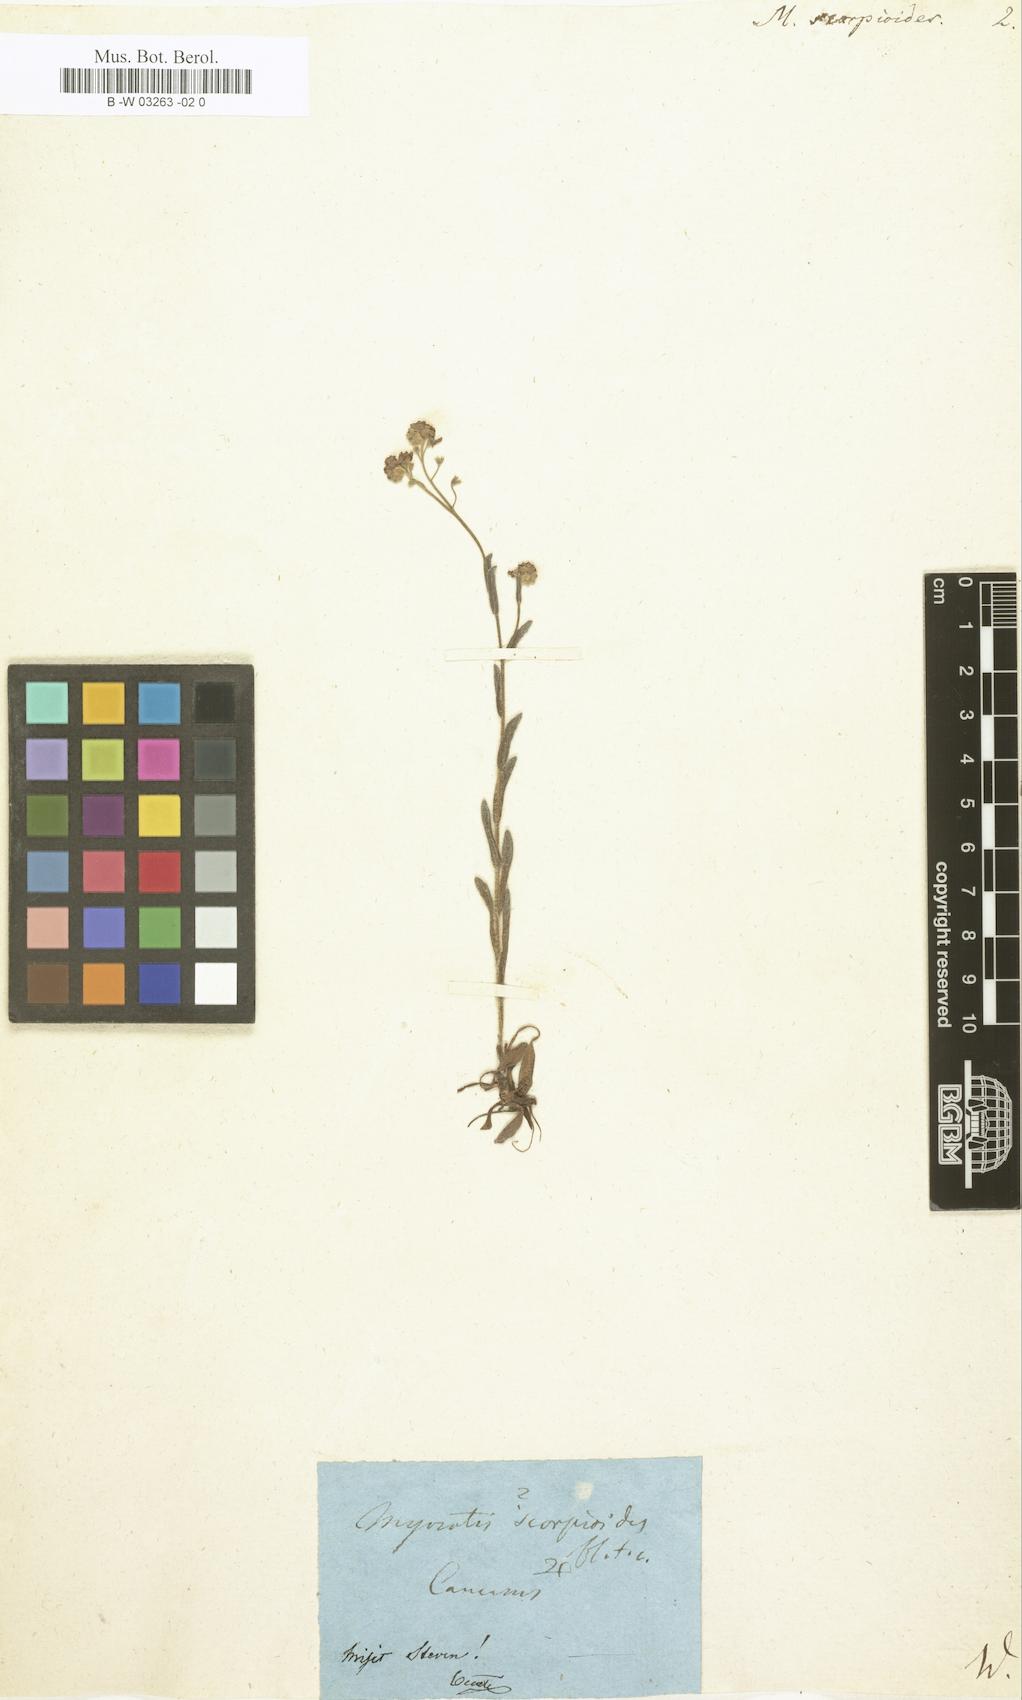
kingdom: Plantae
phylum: Tracheophyta
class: Magnoliopsida
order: Boraginales
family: Boraginaceae
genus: Myosotis
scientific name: Myosotis scorpioides
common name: Water forget-me-not
